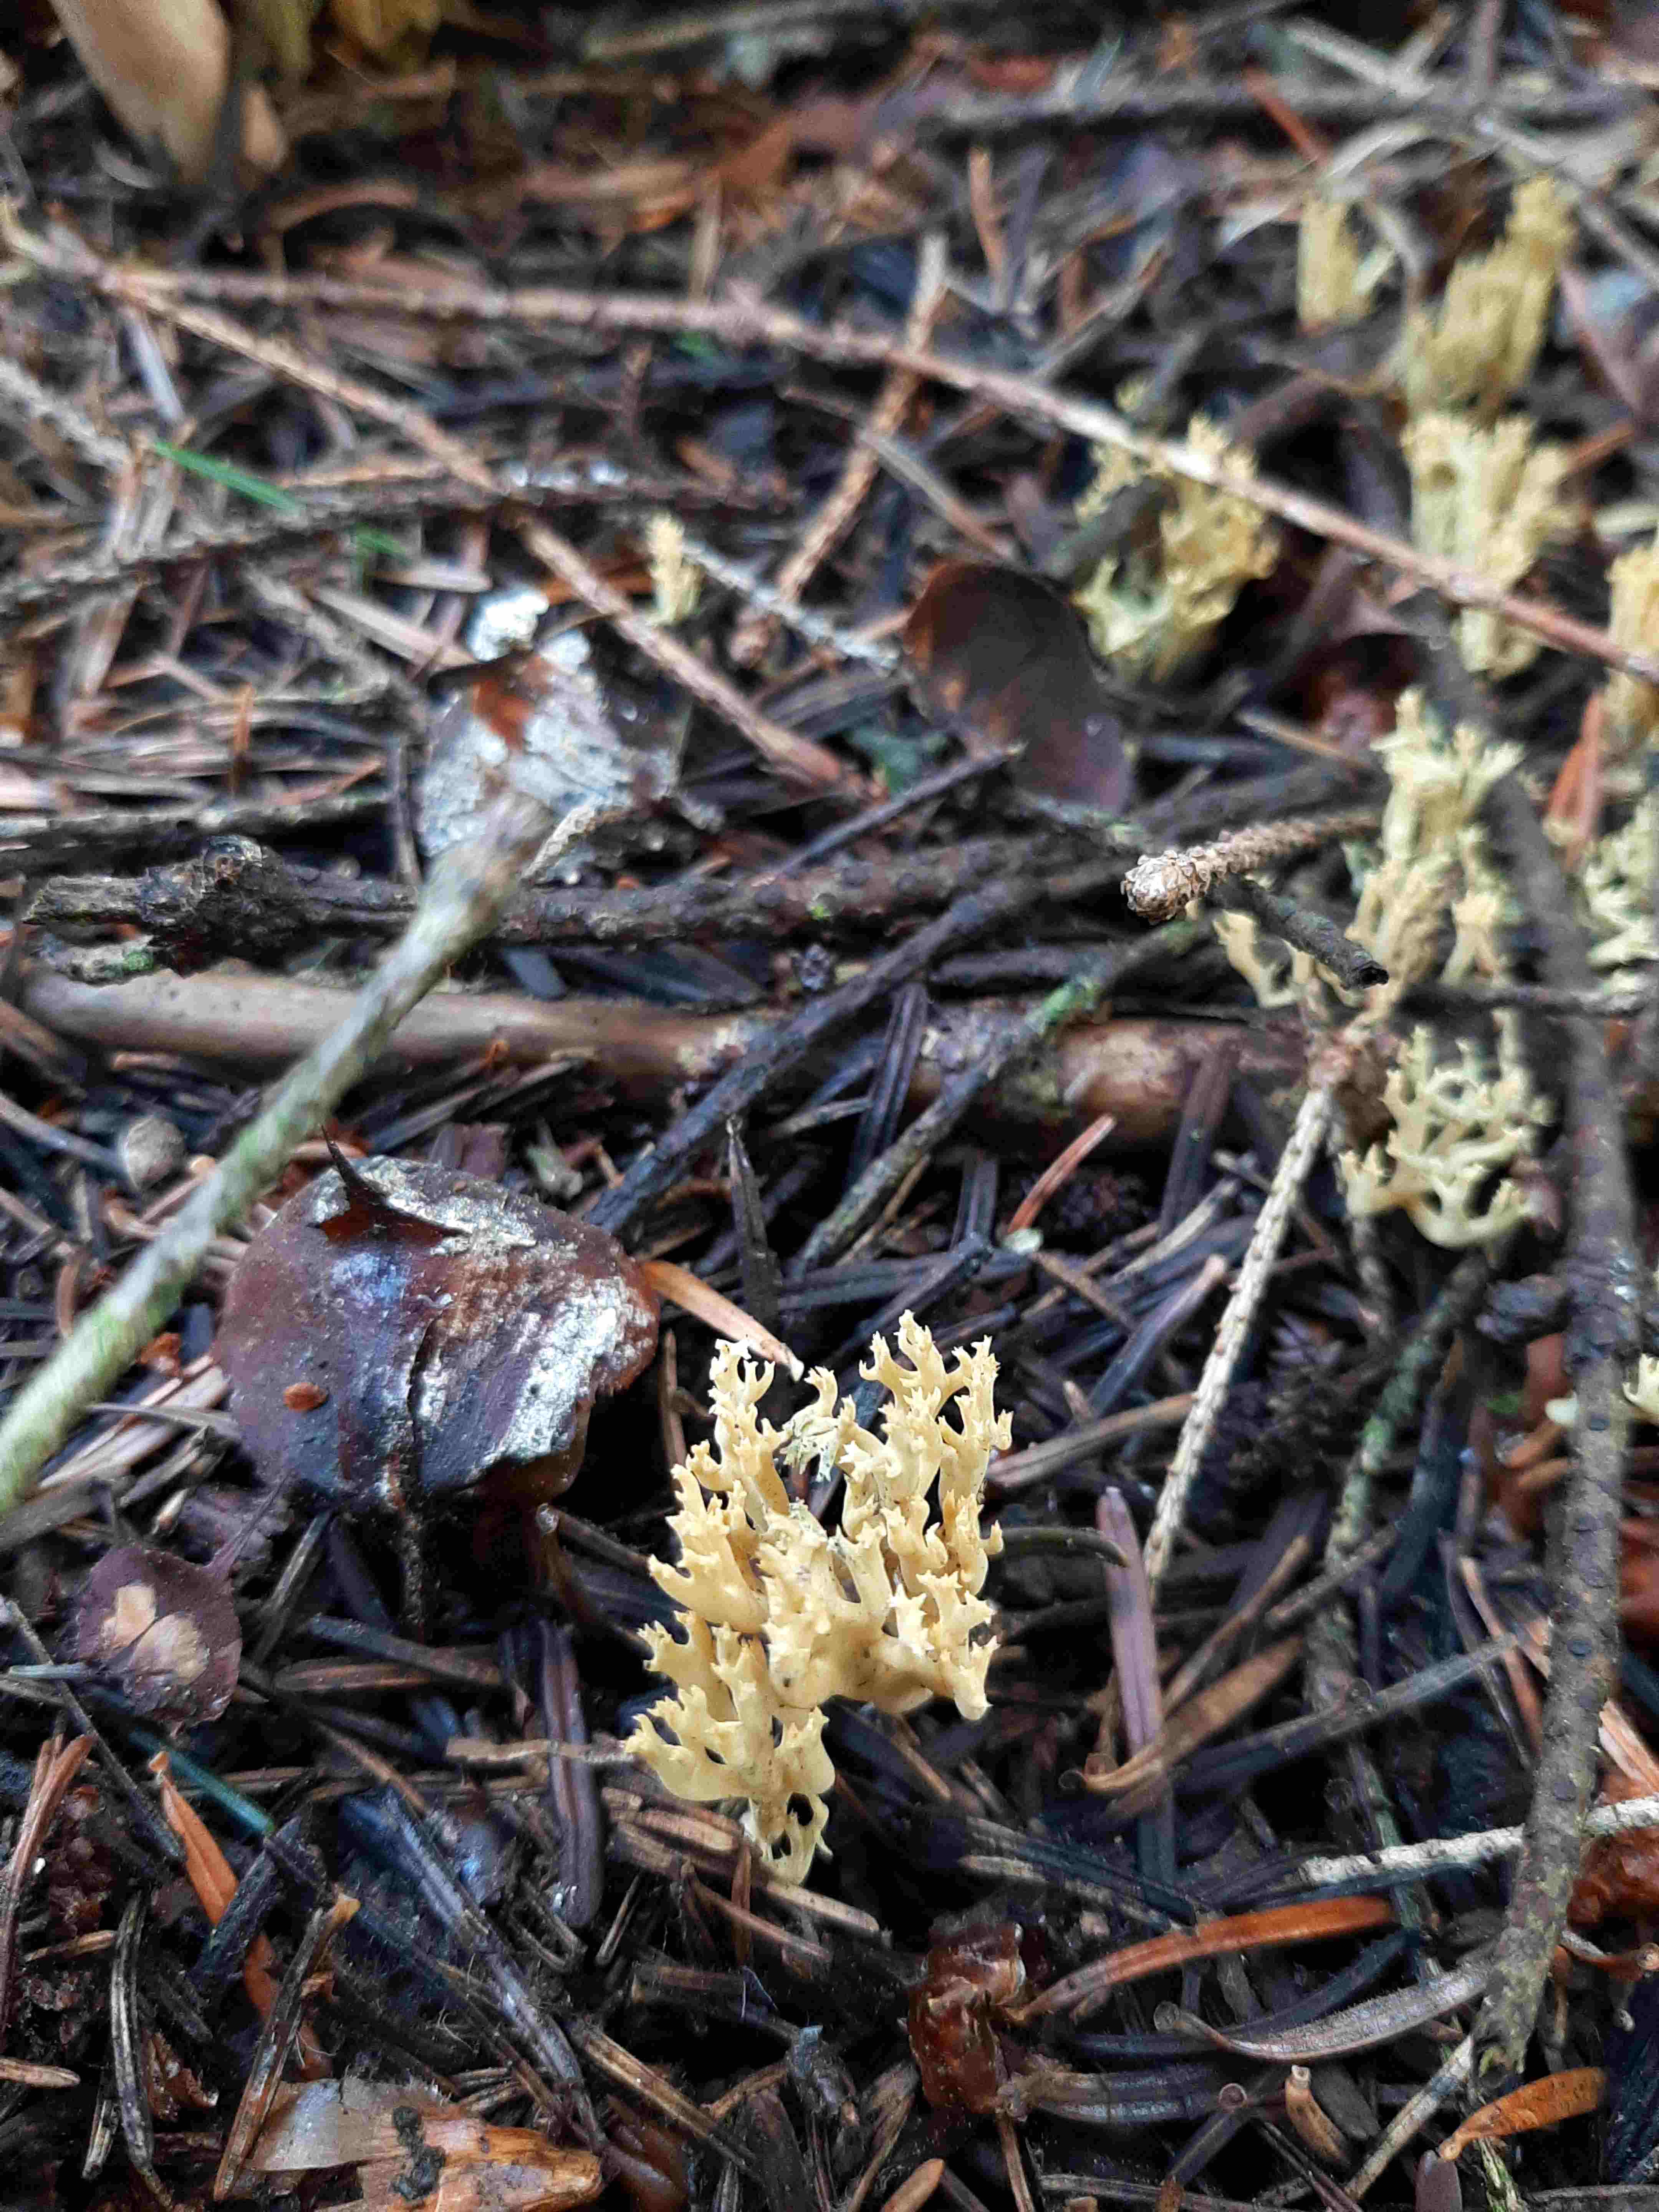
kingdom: Fungi
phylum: Basidiomycota
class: Agaricomycetes
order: Gomphales
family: Gomphaceae
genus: Phaeoclavulina
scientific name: Phaeoclavulina eumorpha
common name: gran-koralsvamp
